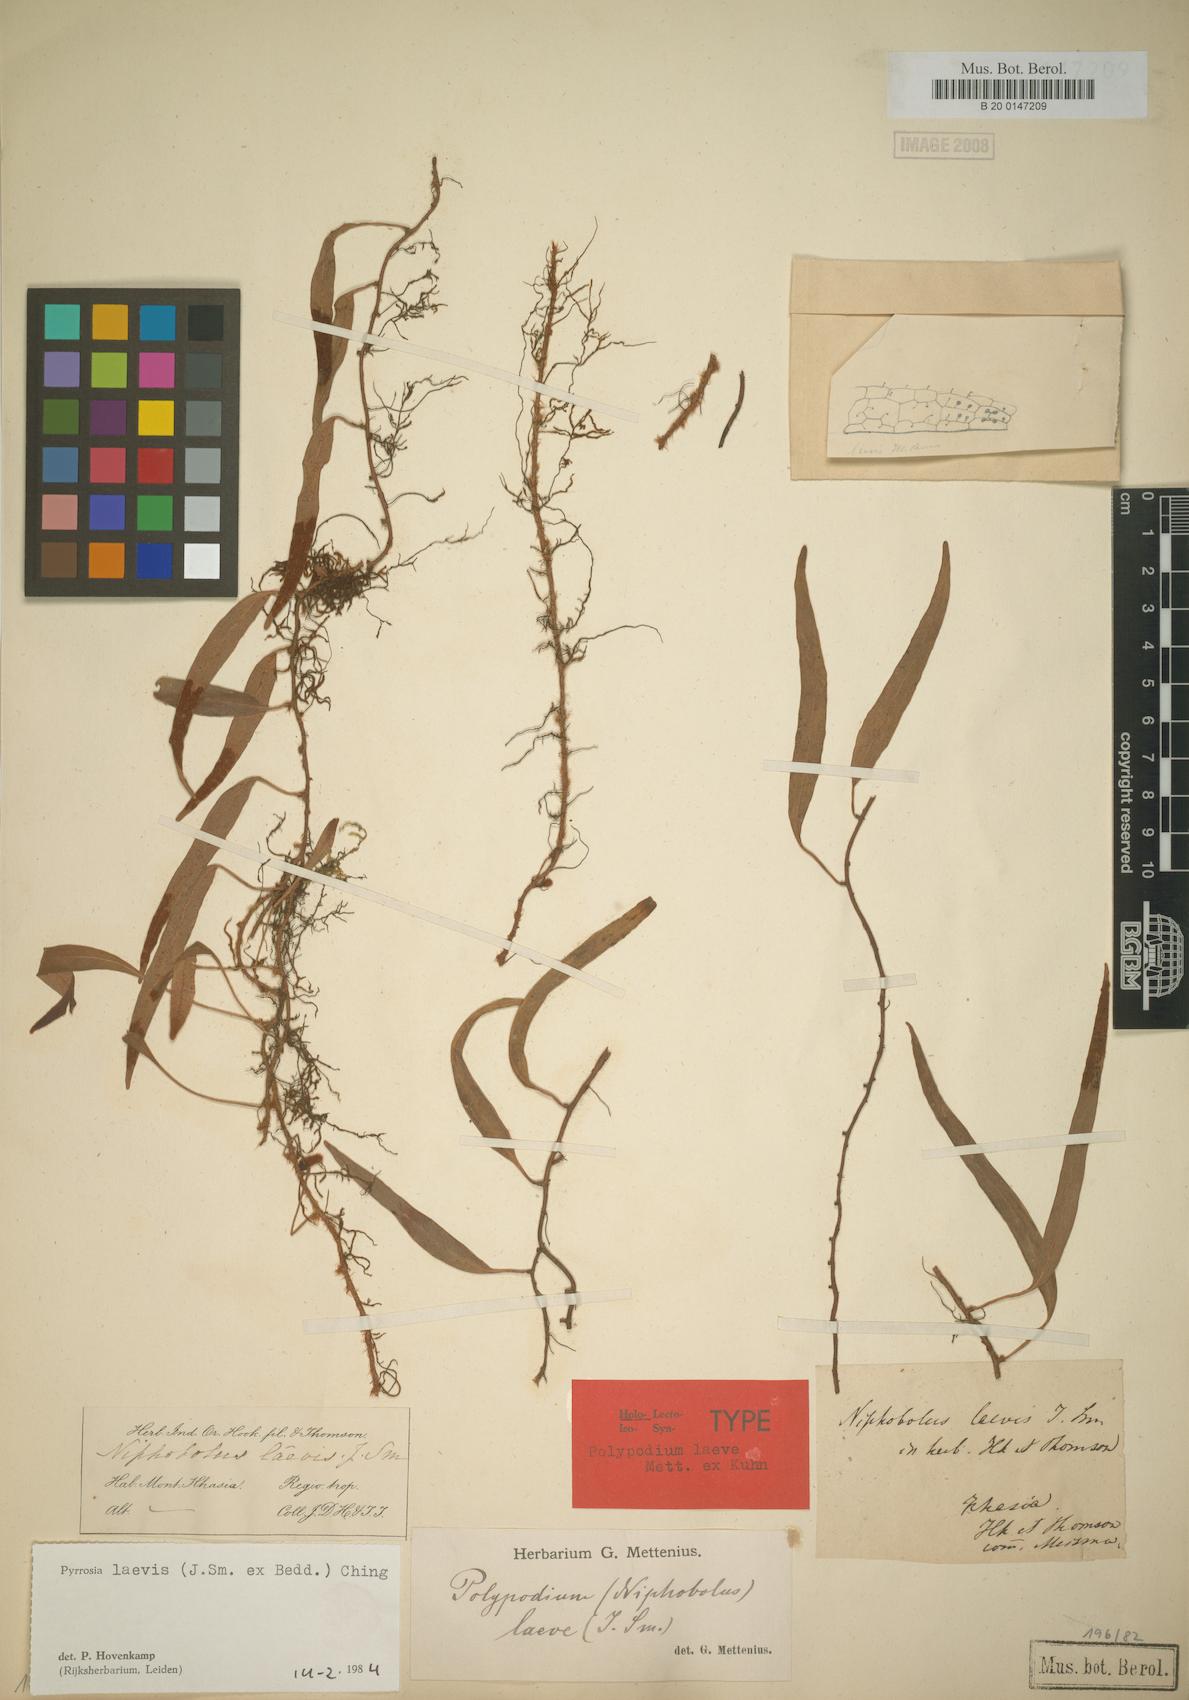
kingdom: Plantae
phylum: Tracheophyta
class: Polypodiopsida
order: Polypodiales
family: Polypodiaceae
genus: Pyrrosia
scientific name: Pyrrosia laevis
